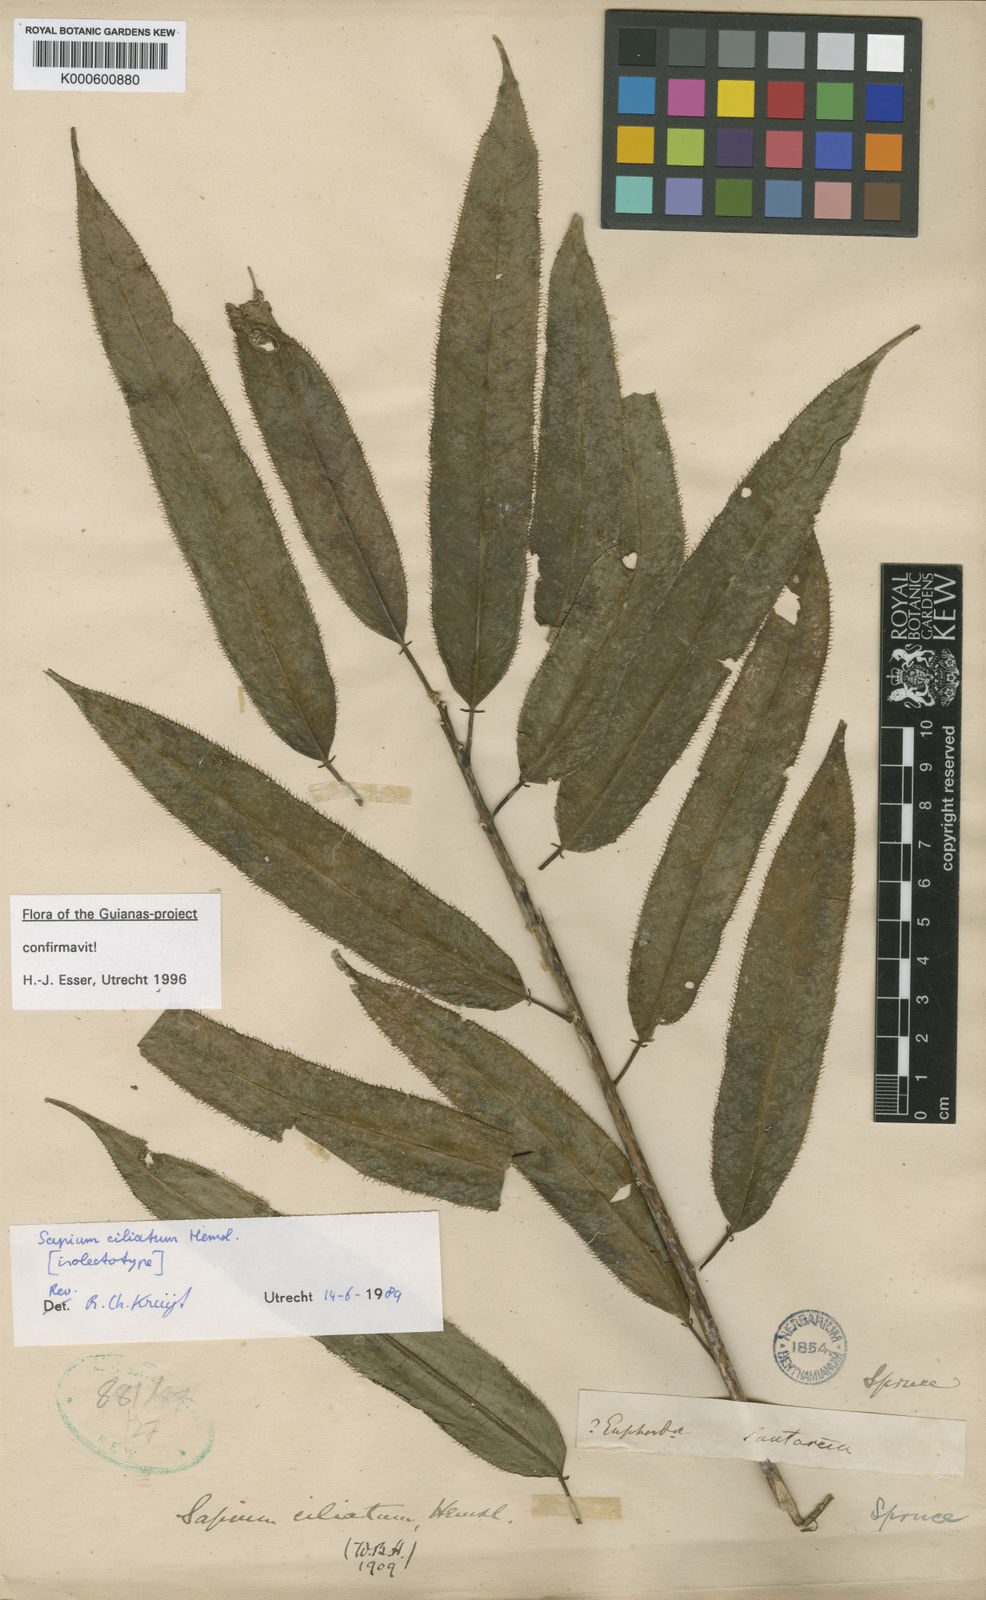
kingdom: Plantae
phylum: Tracheophyta
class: Magnoliopsida
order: Malpighiales
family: Euphorbiaceae
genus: Sapium
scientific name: Sapium ciliatum
